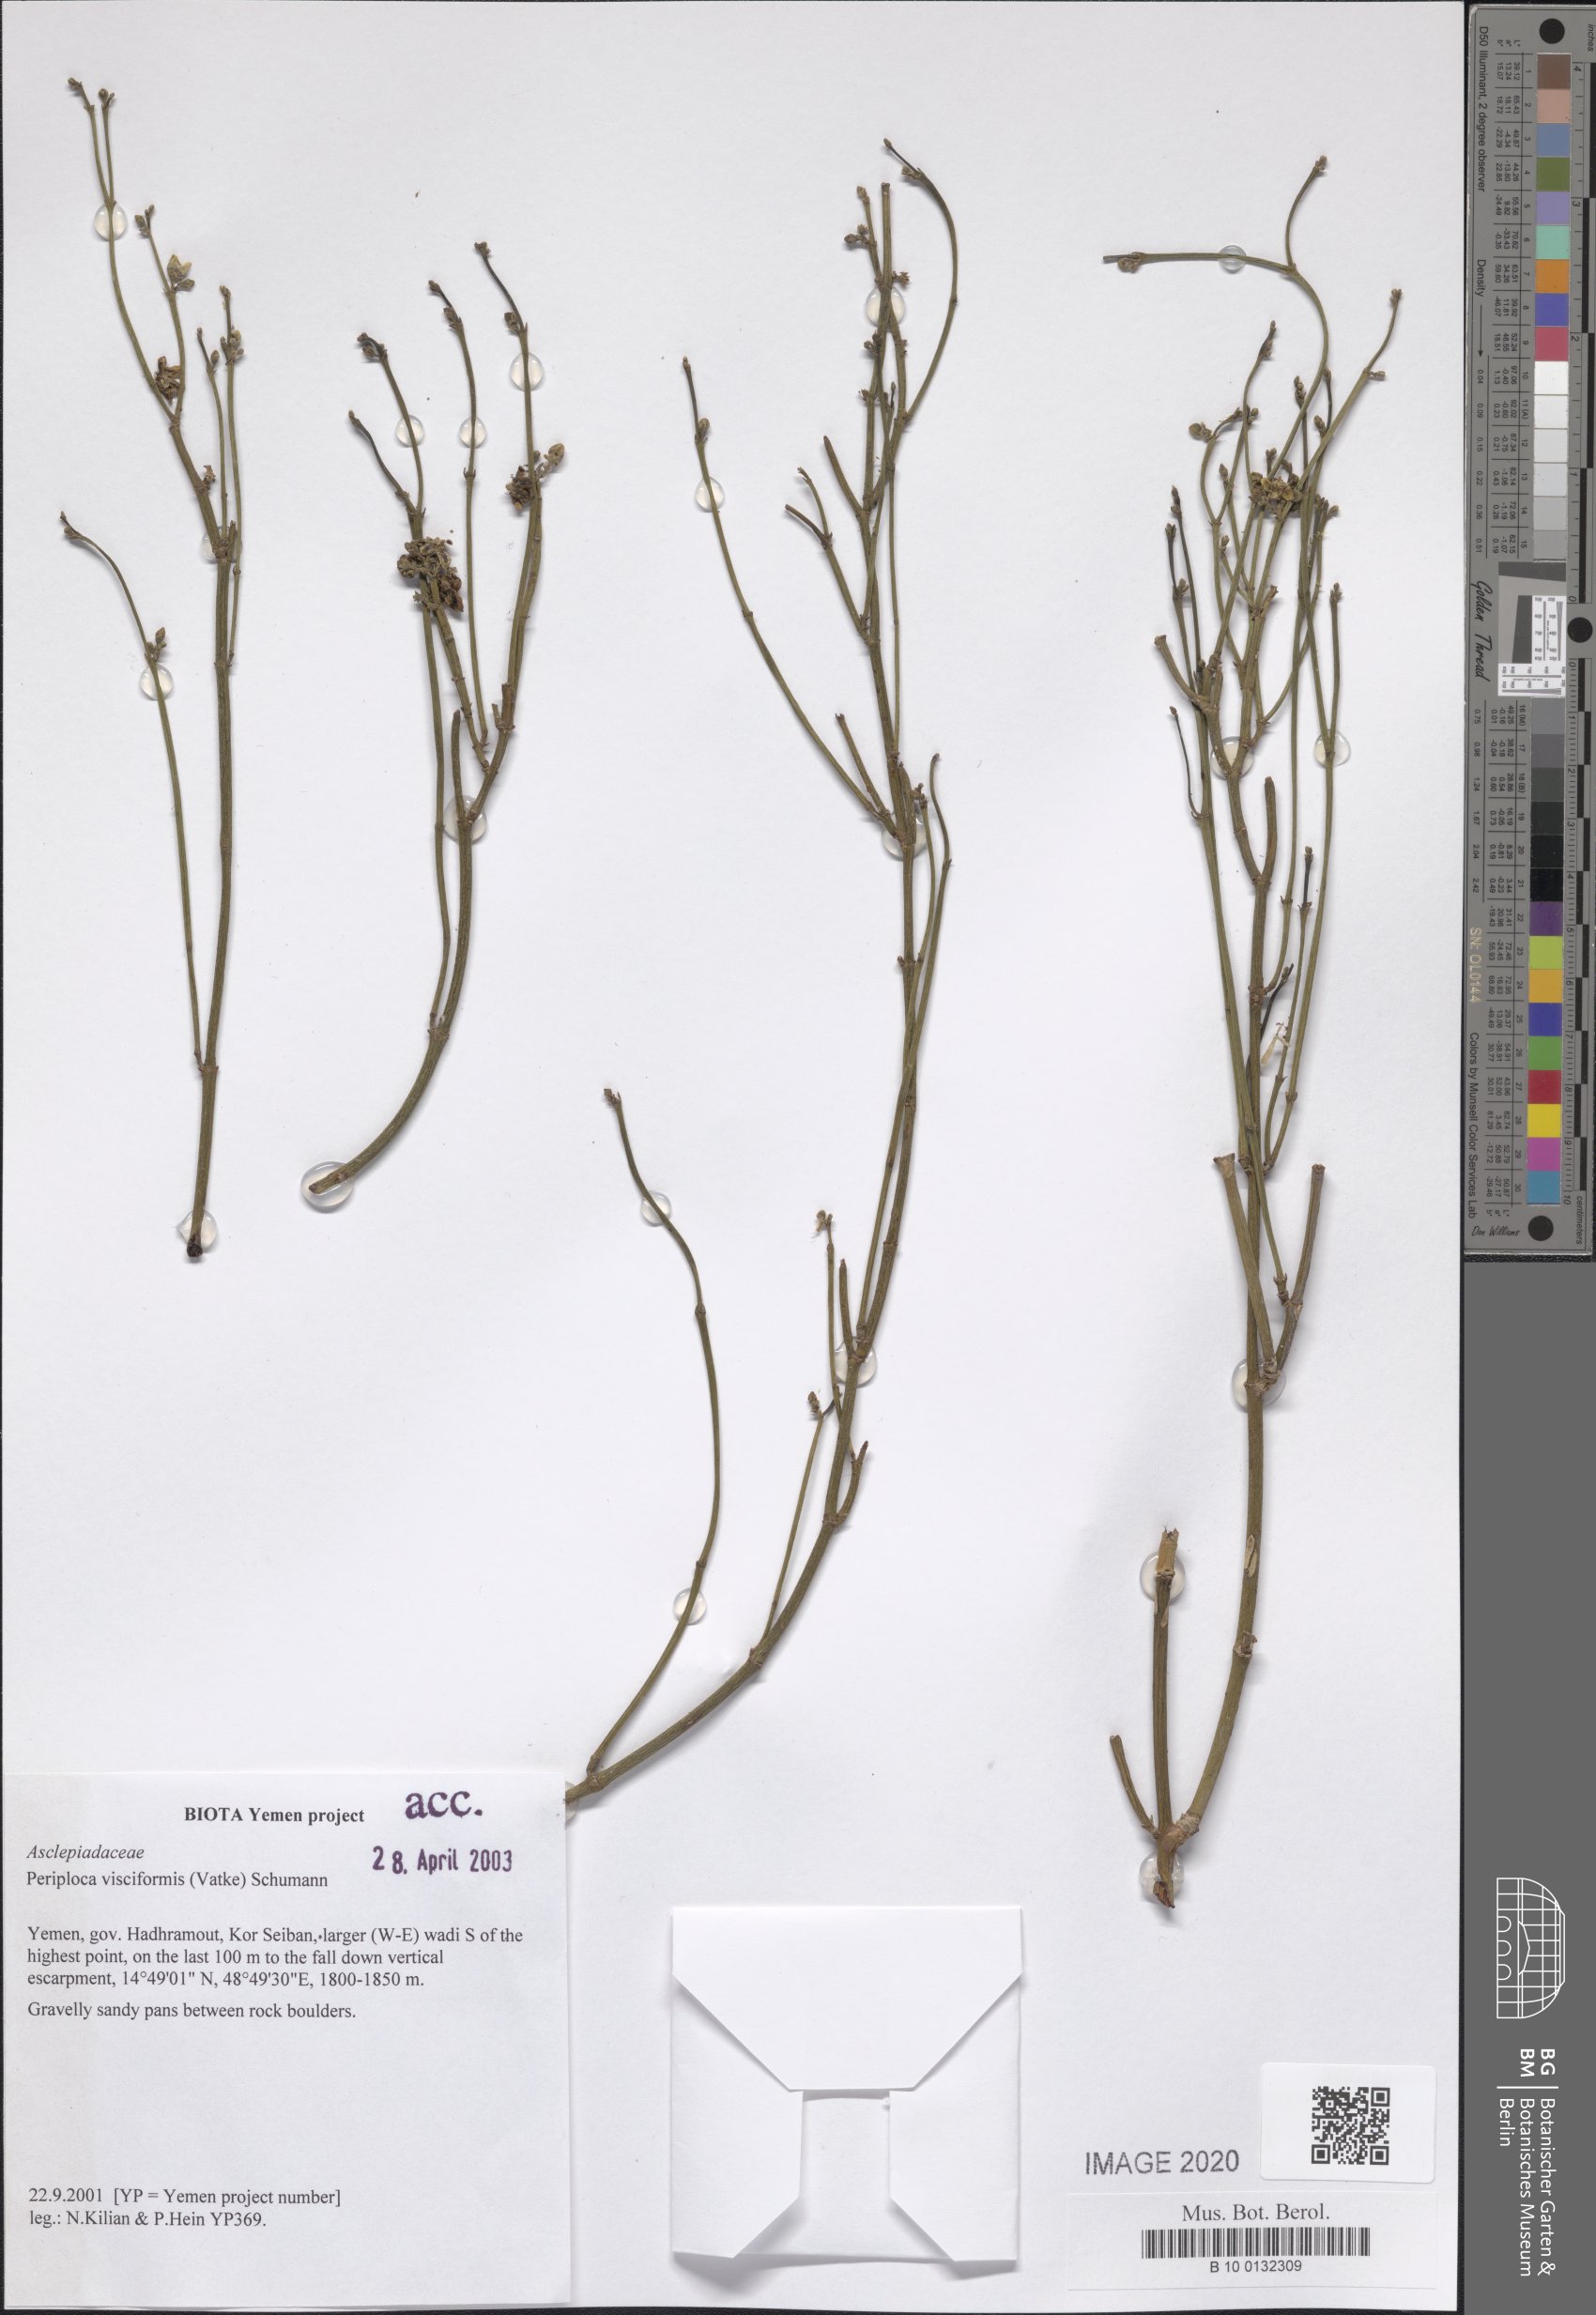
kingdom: Plantae
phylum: Tracheophyta
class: Magnoliopsida
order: Gentianales
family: Apocynaceae
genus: Periploca
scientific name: Periploca visciformis
